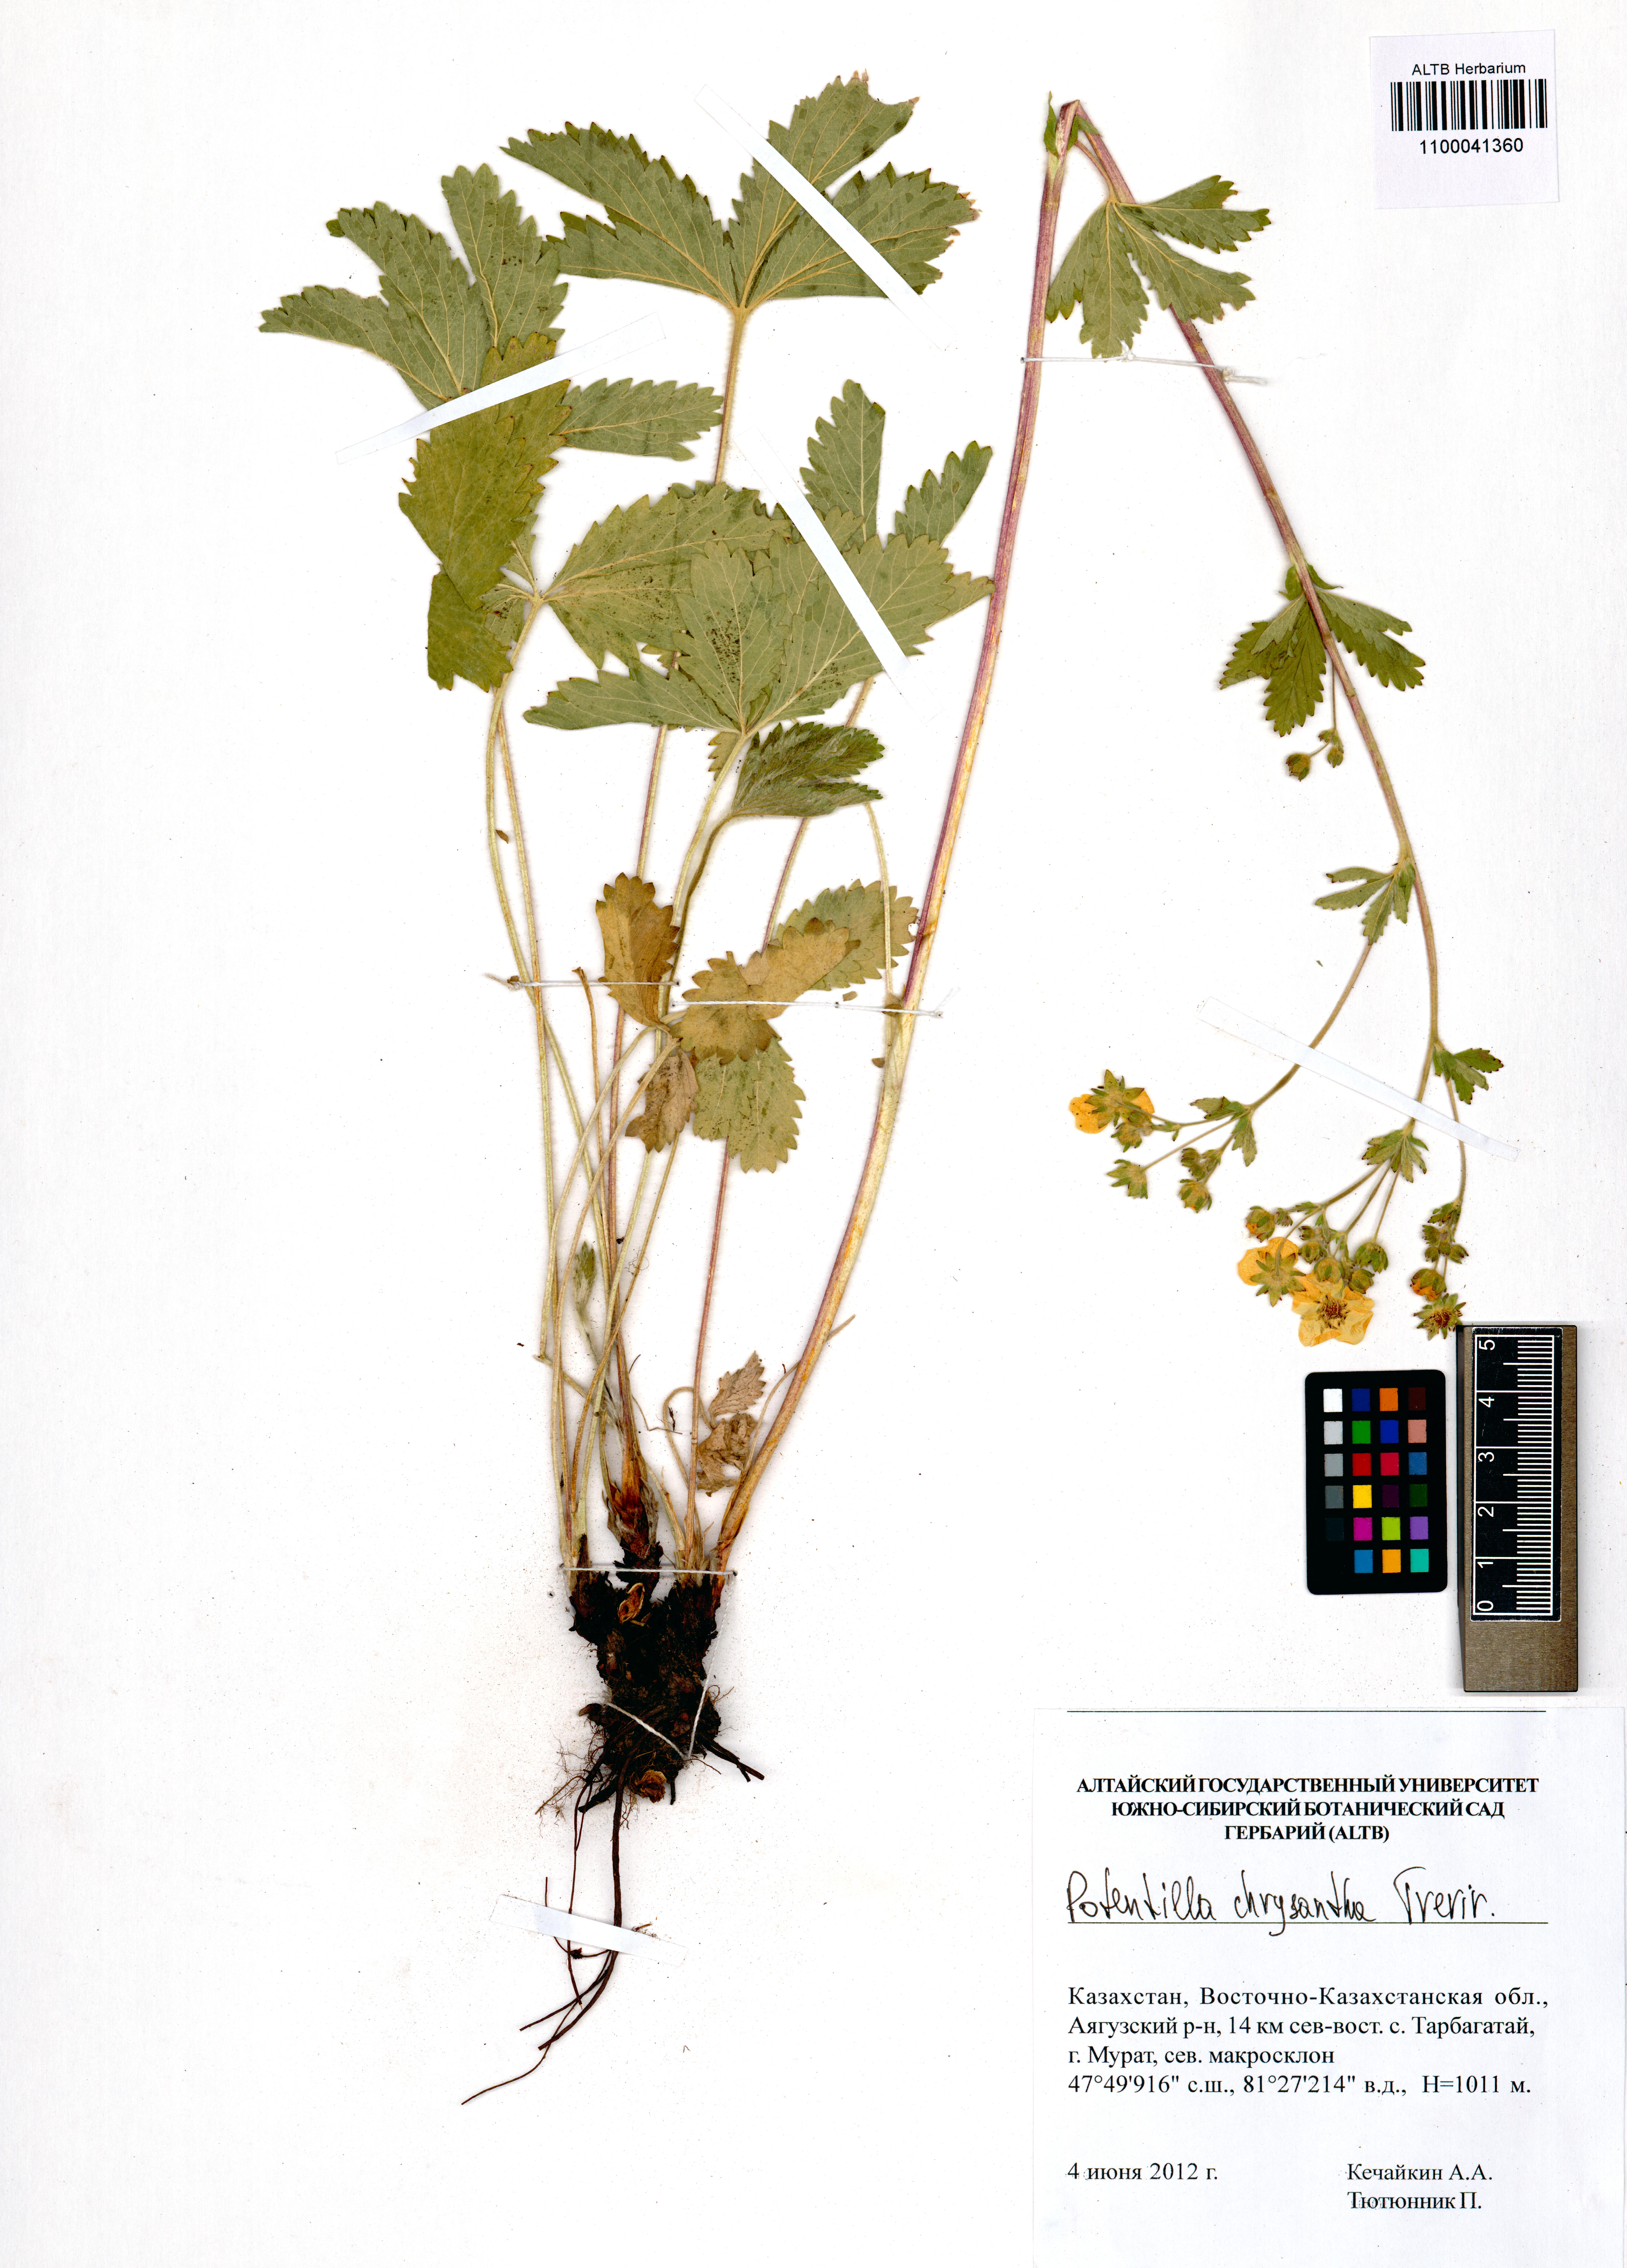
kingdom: Plantae
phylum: Tracheophyta
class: Magnoliopsida
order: Rosales
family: Rosaceae
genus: Potentilla
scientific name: Potentilla chrysantha
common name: Thuringian cinquefoil
